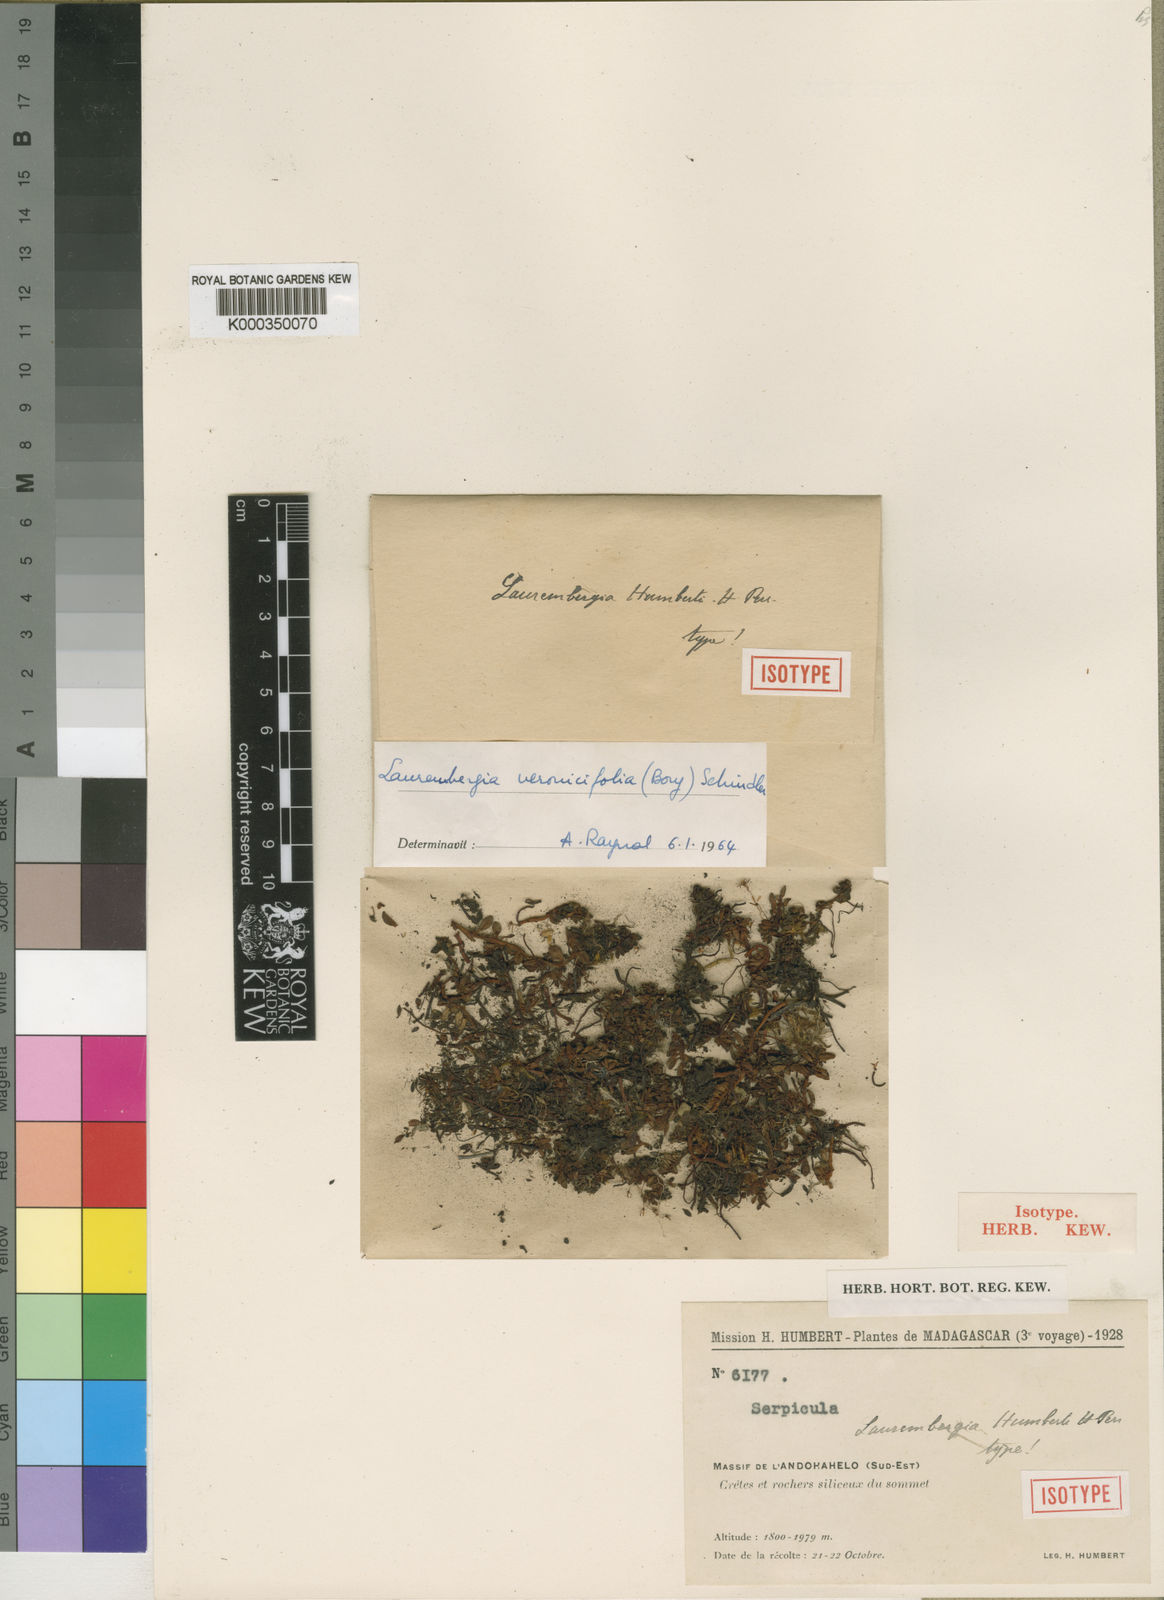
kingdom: Plantae
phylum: Tracheophyta
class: Magnoliopsida
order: Saxifragales
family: Haloragaceae
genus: Laurembergia
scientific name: Laurembergia veronicifolia
